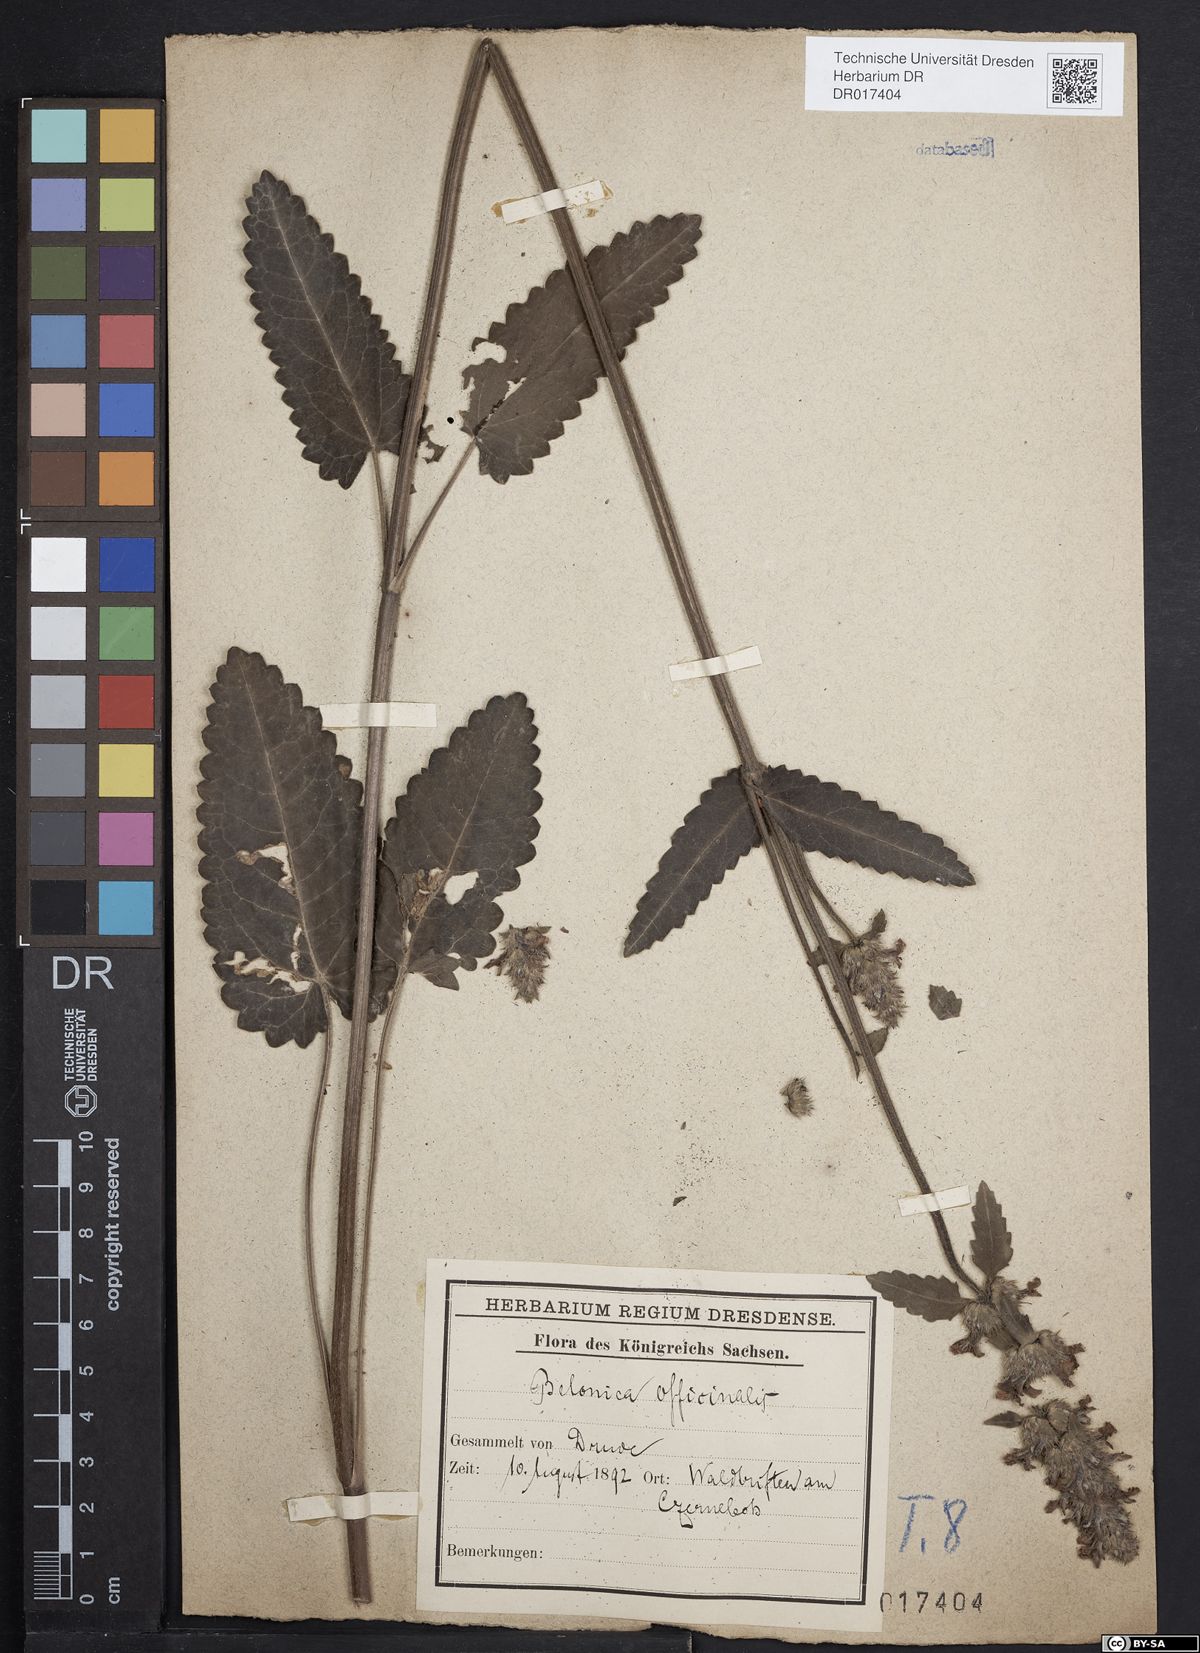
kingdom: Plantae
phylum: Tracheophyta
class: Magnoliopsida
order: Lamiales
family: Lamiaceae
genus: Betonica
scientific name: Betonica officinalis
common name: Bishop's-wort
